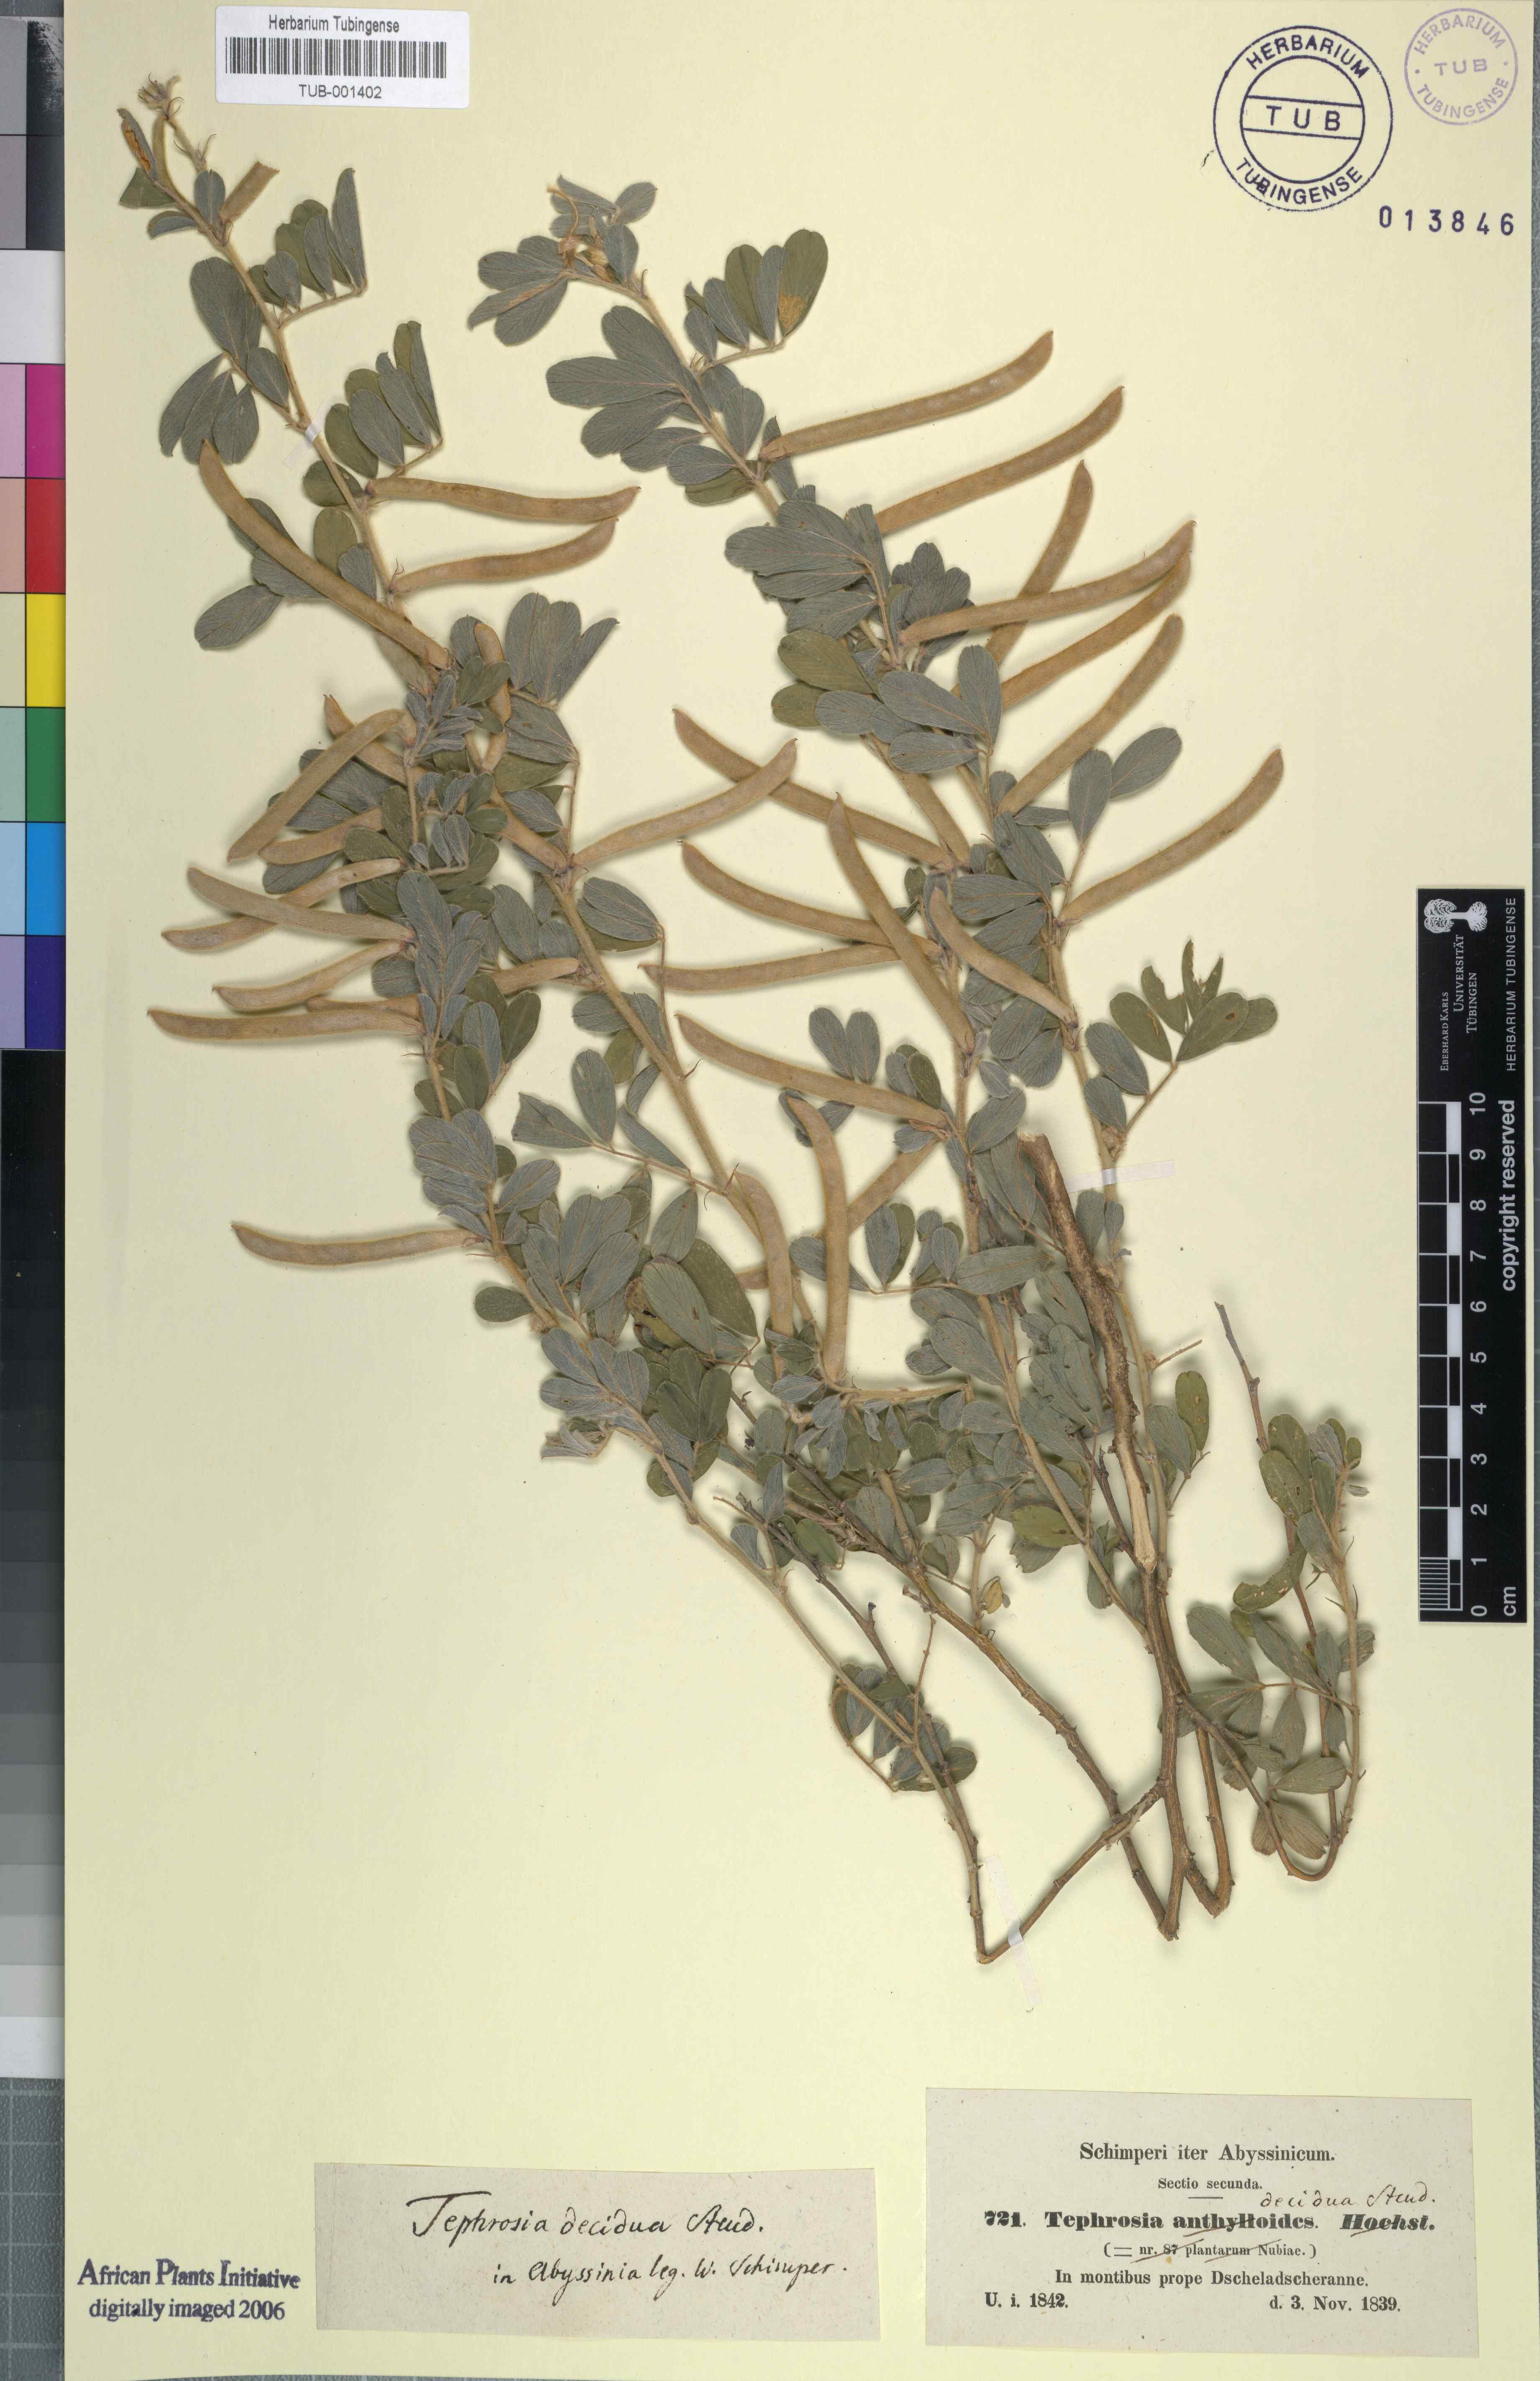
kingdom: Plantae
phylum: Tracheophyta
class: Magnoliopsida
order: Fabales
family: Fabaceae
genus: Tephrosia
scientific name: Tephrosia subtriflora
